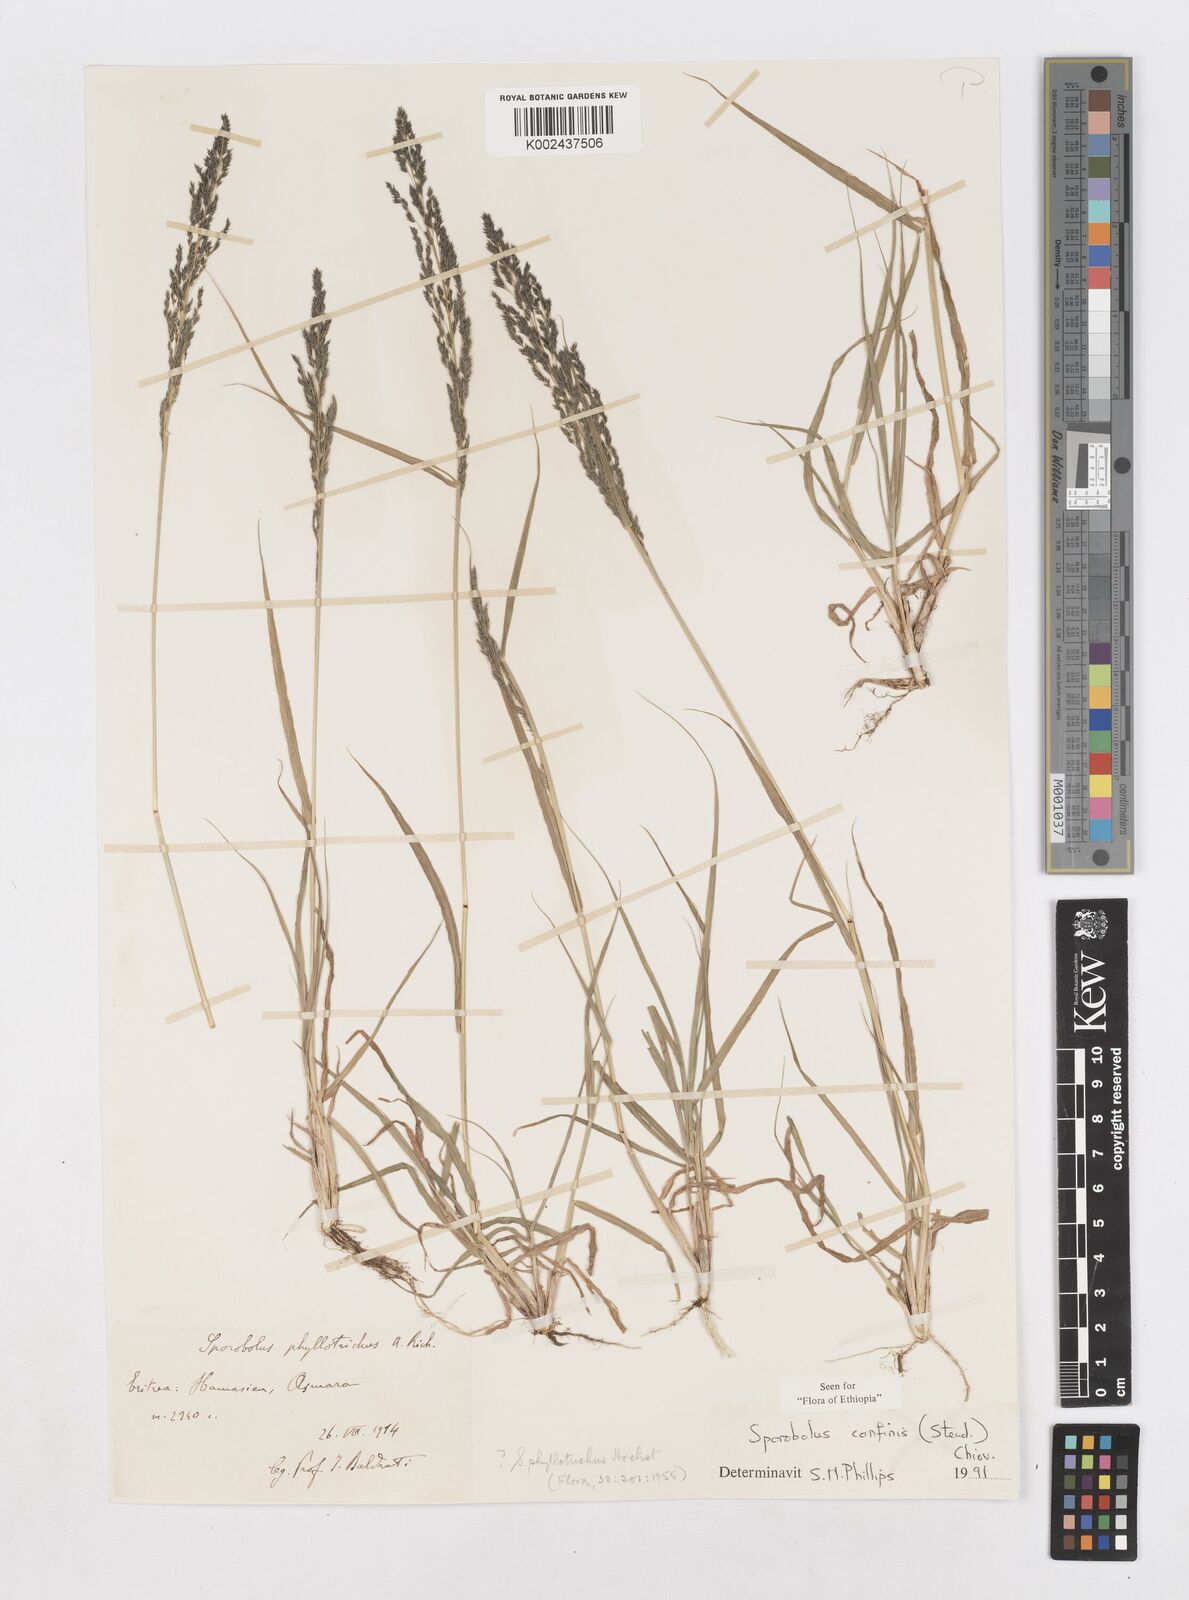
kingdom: Plantae
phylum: Tracheophyta
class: Liliopsida
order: Poales
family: Poaceae
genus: Sporobolus
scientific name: Sporobolus confinis
